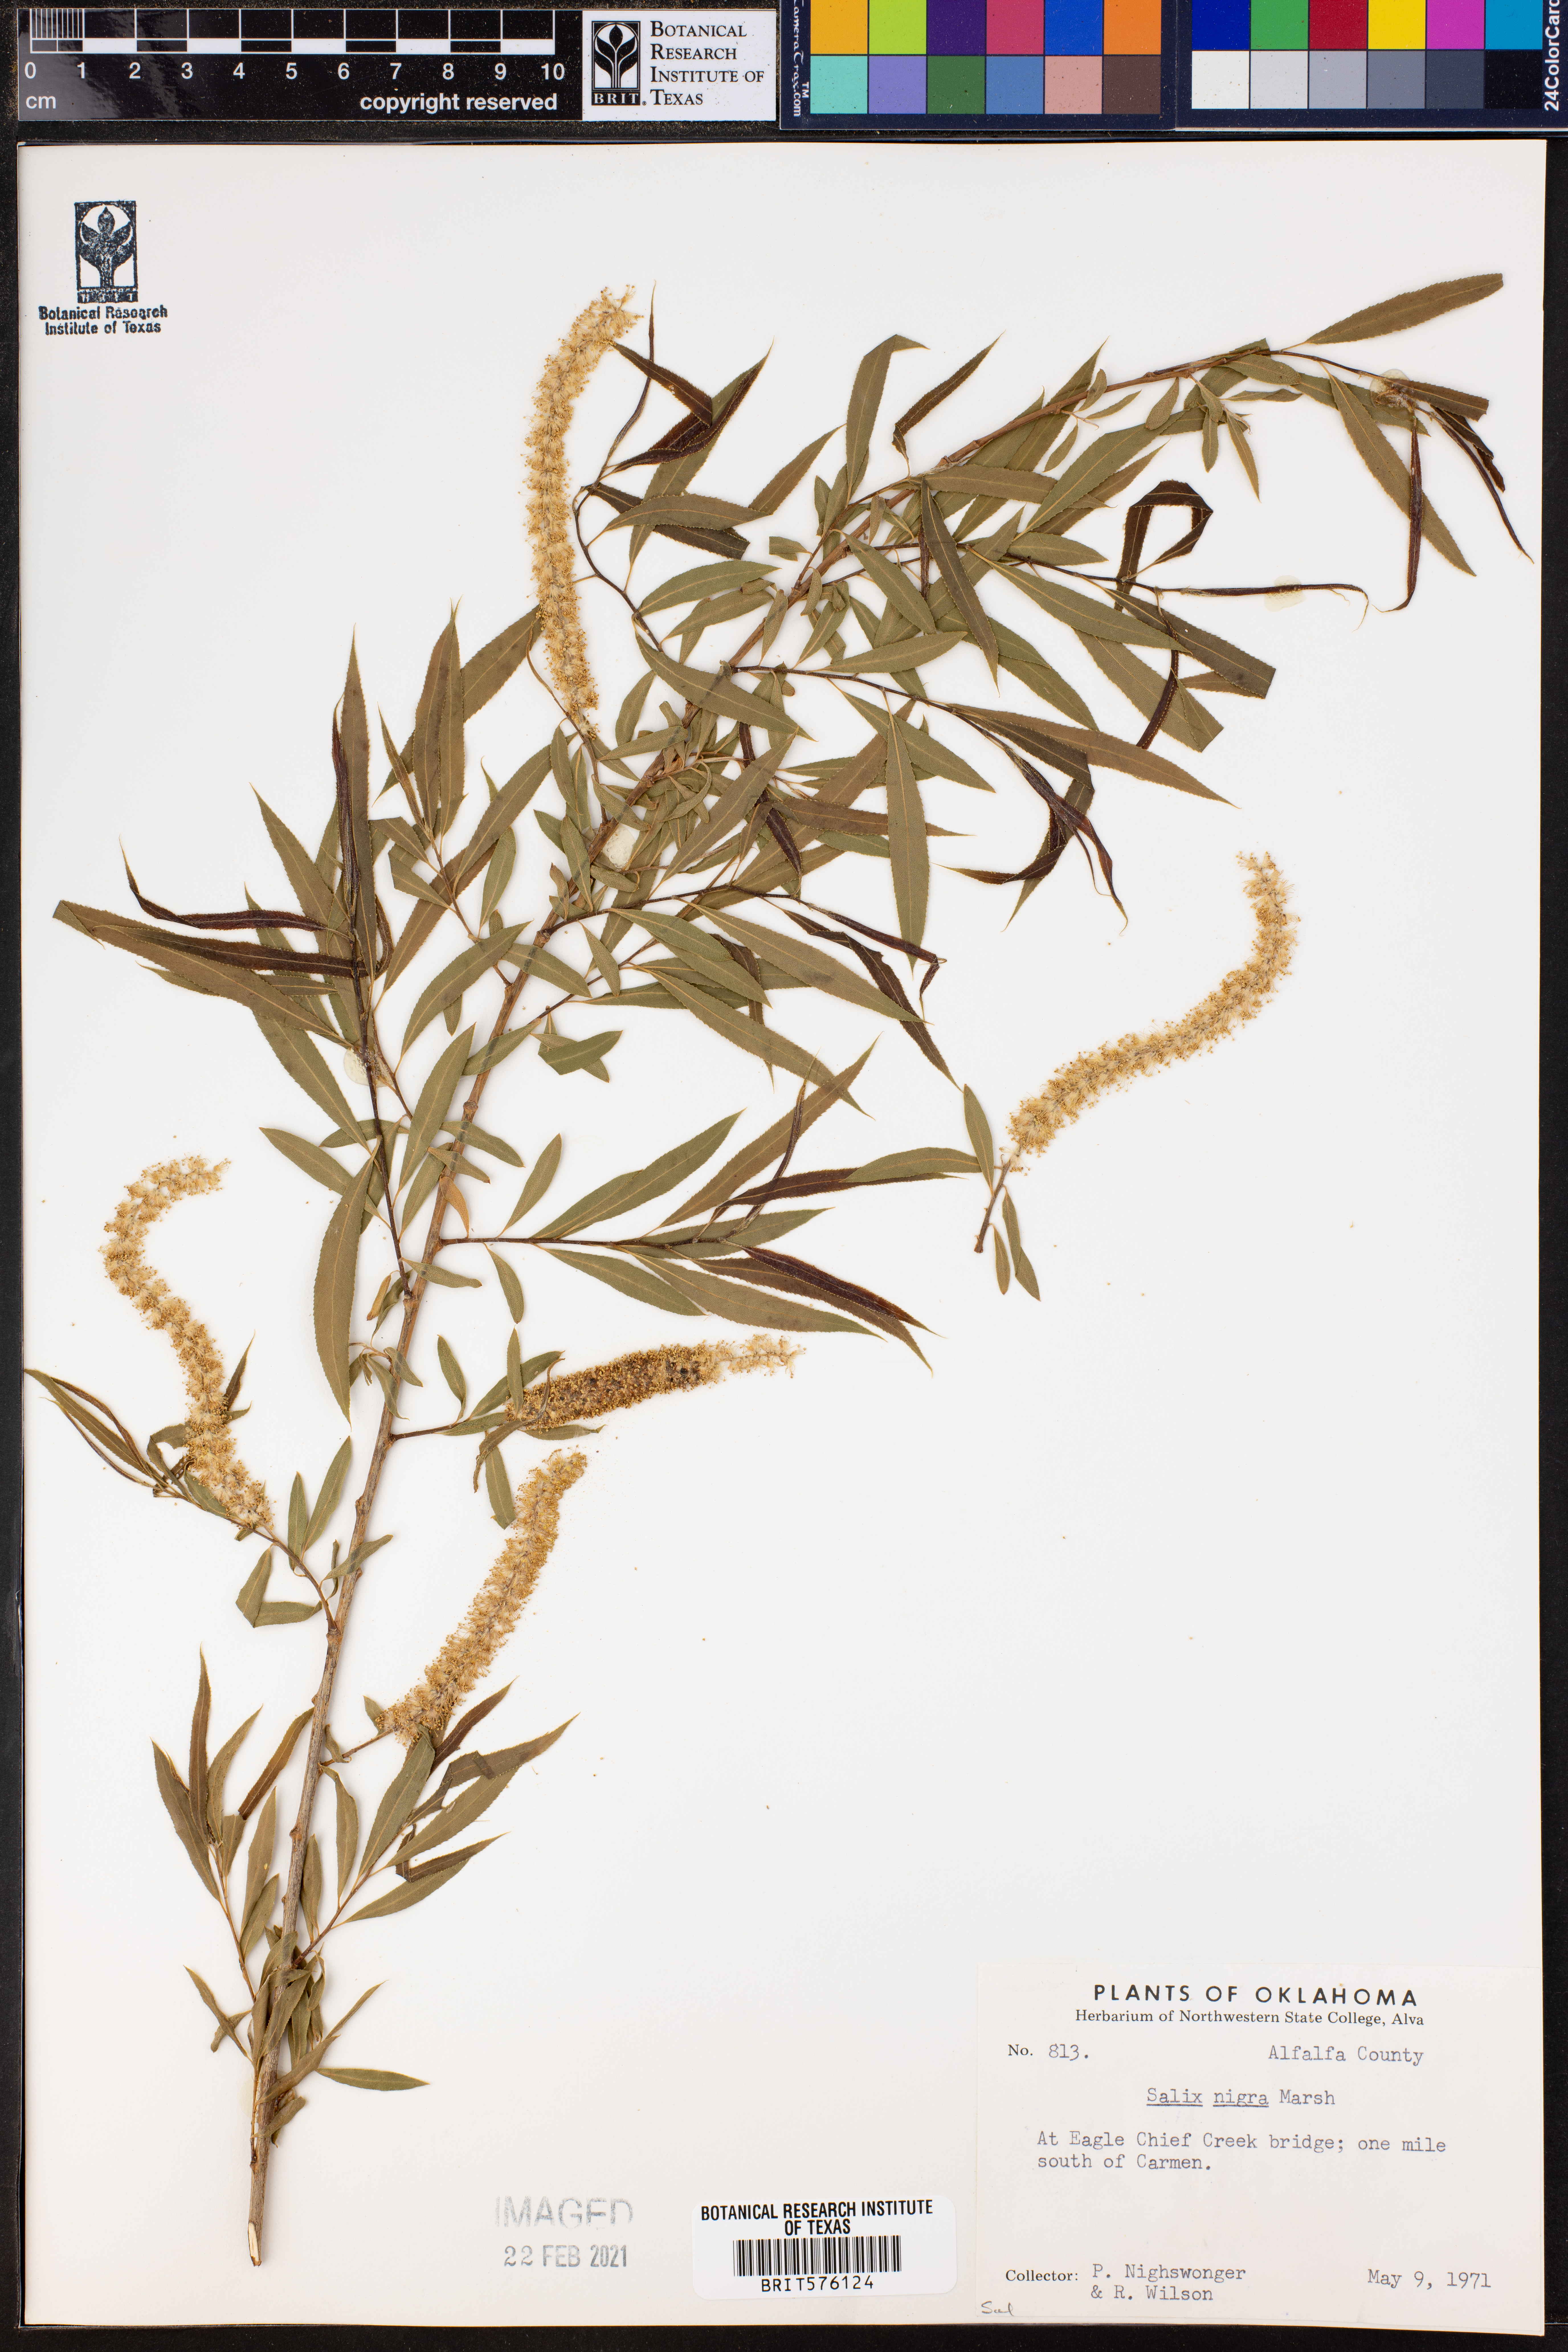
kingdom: Plantae
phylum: Tracheophyta
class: Magnoliopsida
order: Malpighiales
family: Salicaceae
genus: Salix
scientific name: Salix nigra
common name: Black willow
